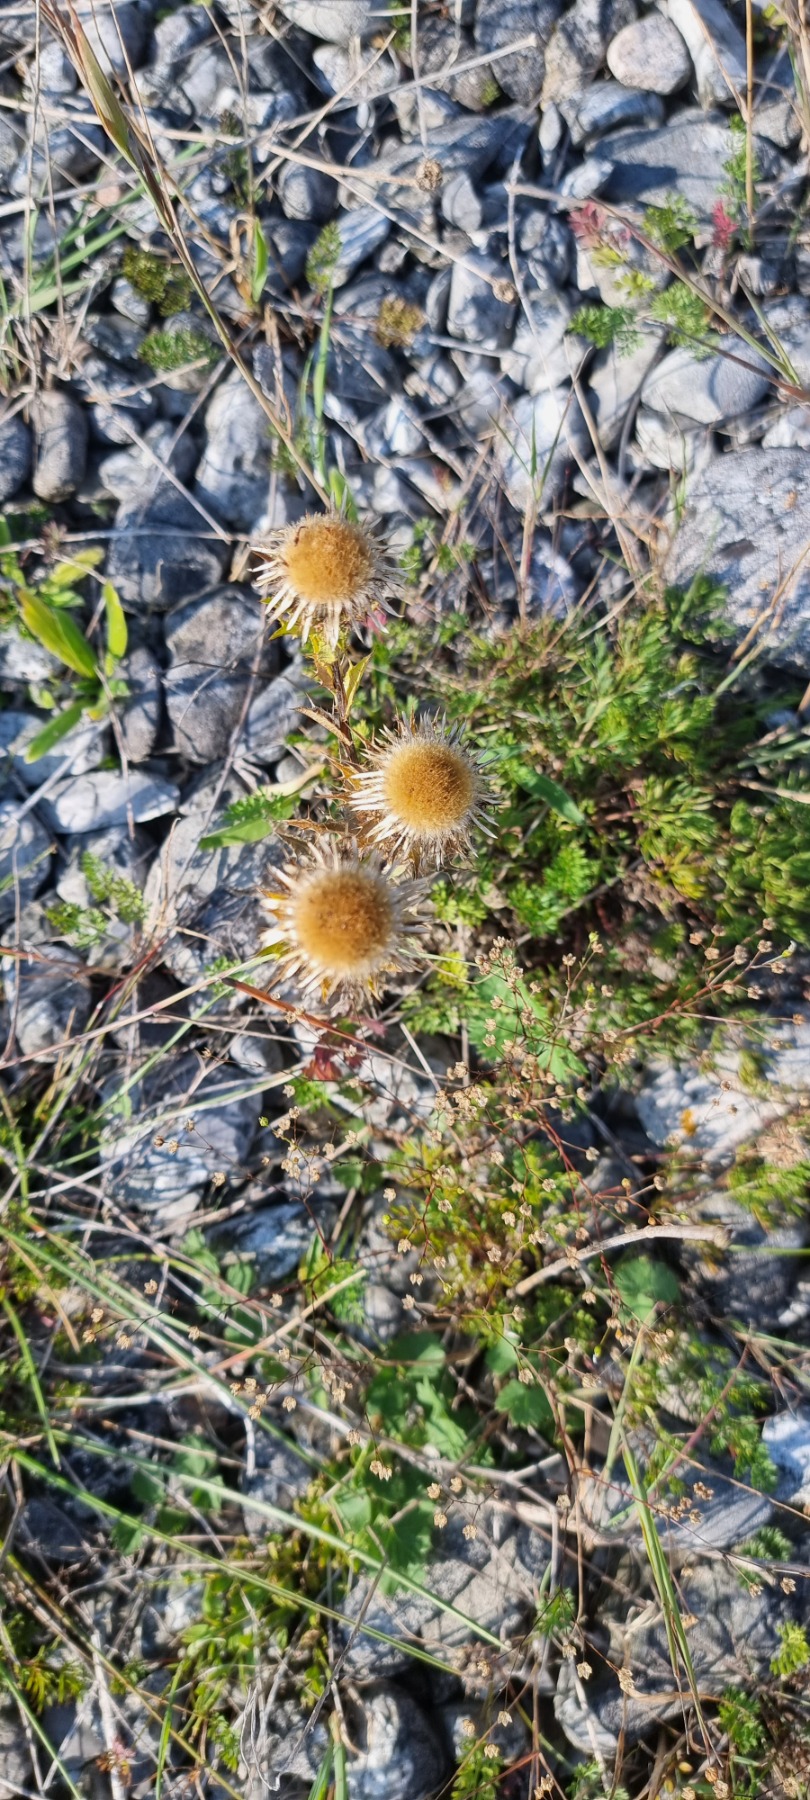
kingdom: Plantae
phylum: Tracheophyta
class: Magnoliopsida
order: Asterales
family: Asteraceae
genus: Carlina
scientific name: Carlina vulgaris
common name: Bakketidsel
